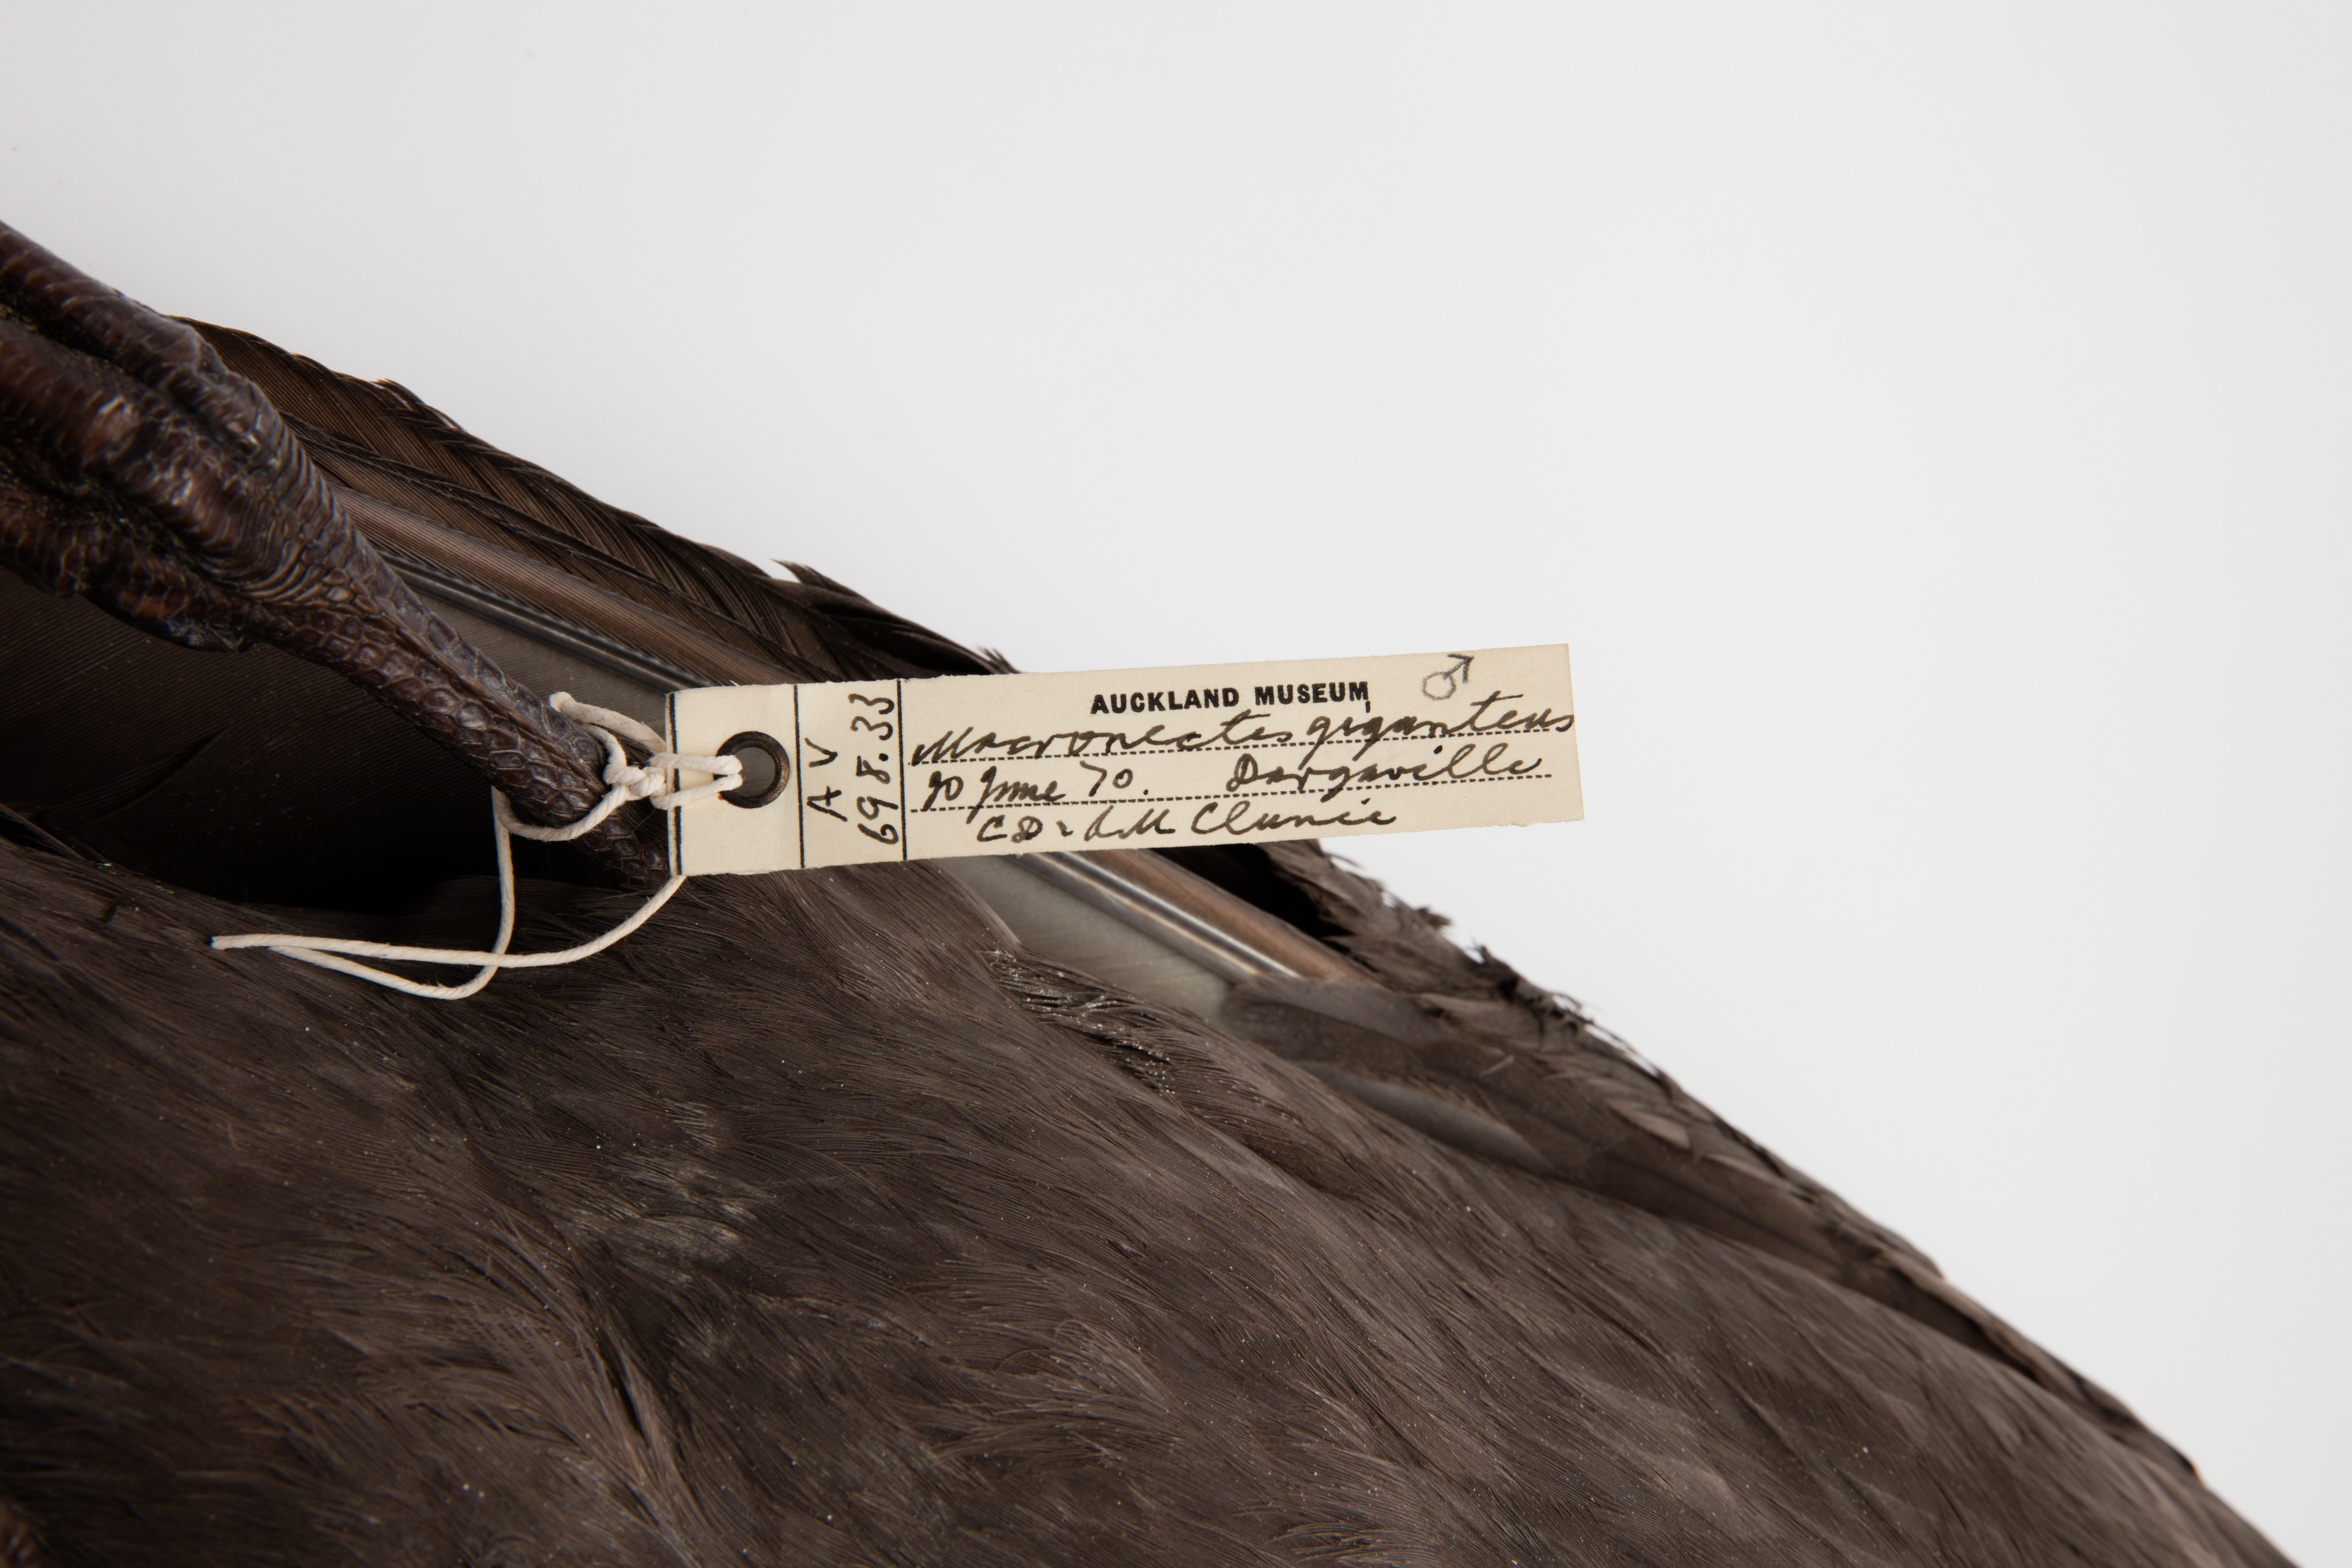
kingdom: Animalia
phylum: Chordata
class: Aves
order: Procellariiformes
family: Procellariidae
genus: Macronectes
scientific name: Macronectes giganteus
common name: Southern giant petrel
